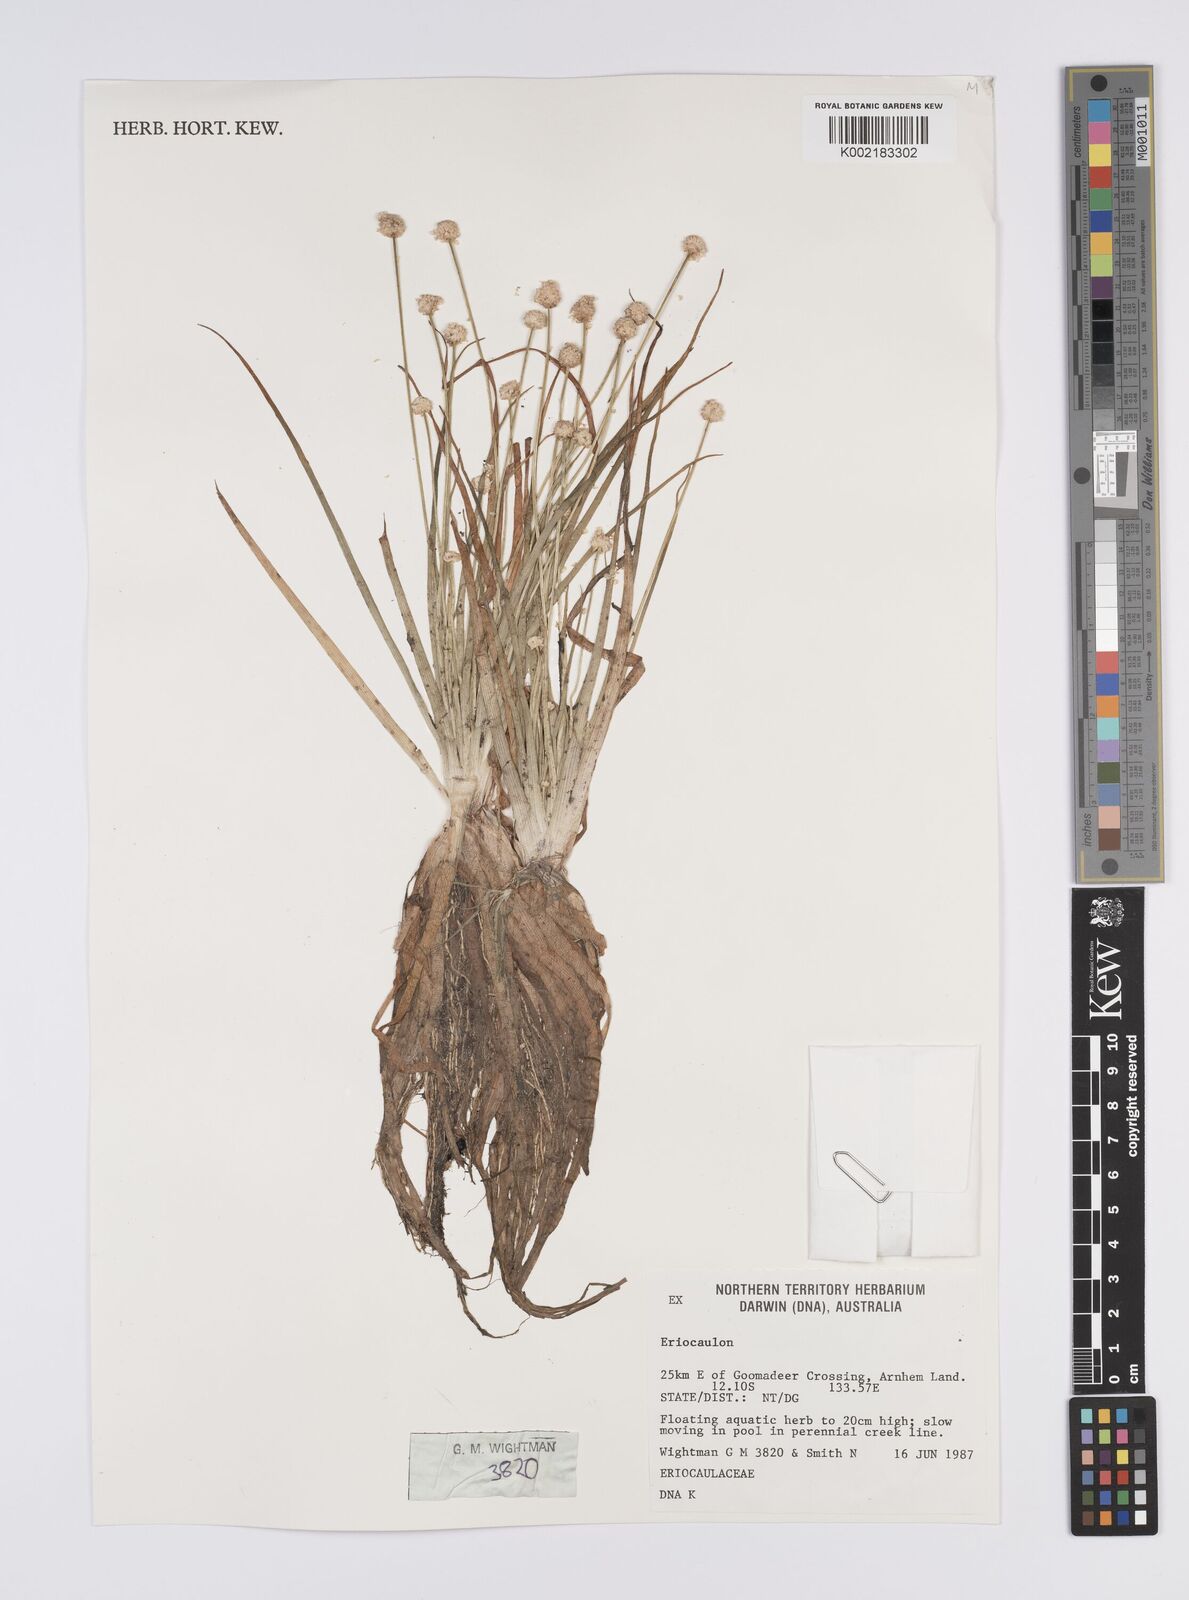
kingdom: Plantae
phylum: Tracheophyta
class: Liliopsida
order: Poales
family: Eriocaulaceae
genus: Eriocaulon
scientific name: Eriocaulon
